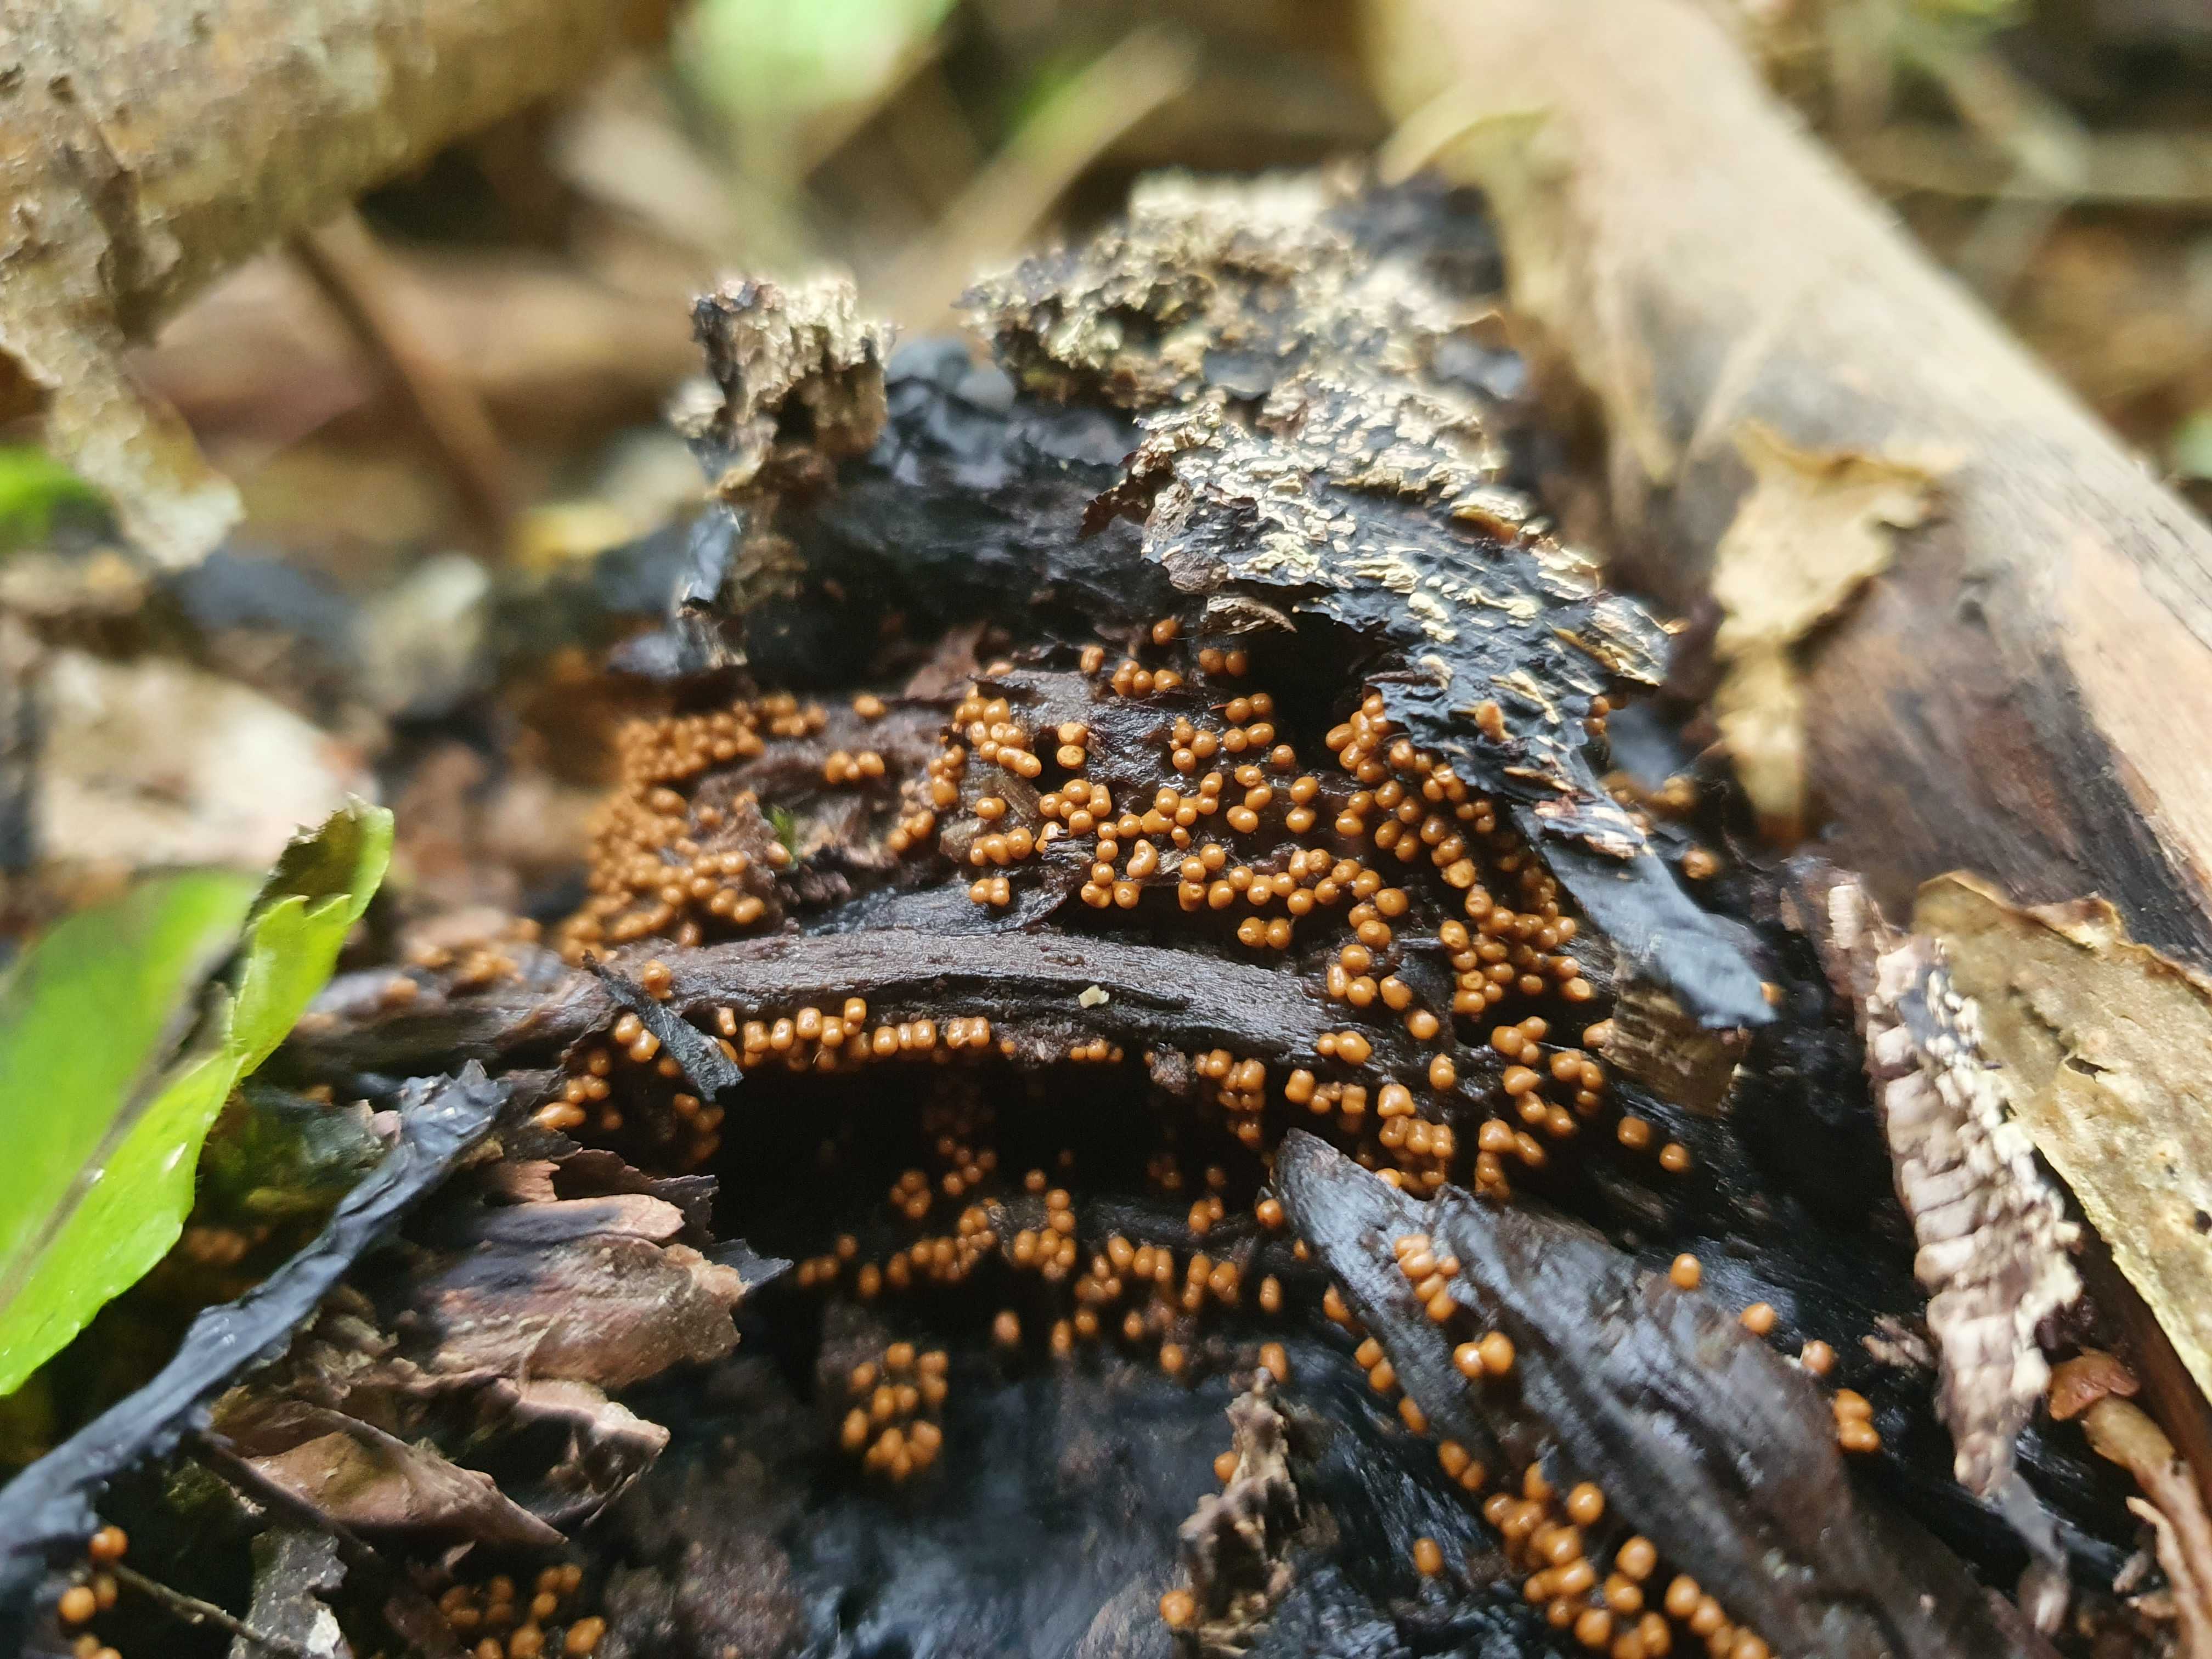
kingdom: Protozoa
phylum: Mycetozoa
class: Myxomycetes
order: Trichiales
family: Trichiaceae
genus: Trichia
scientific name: Trichia varia
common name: foranderlig hårbold
